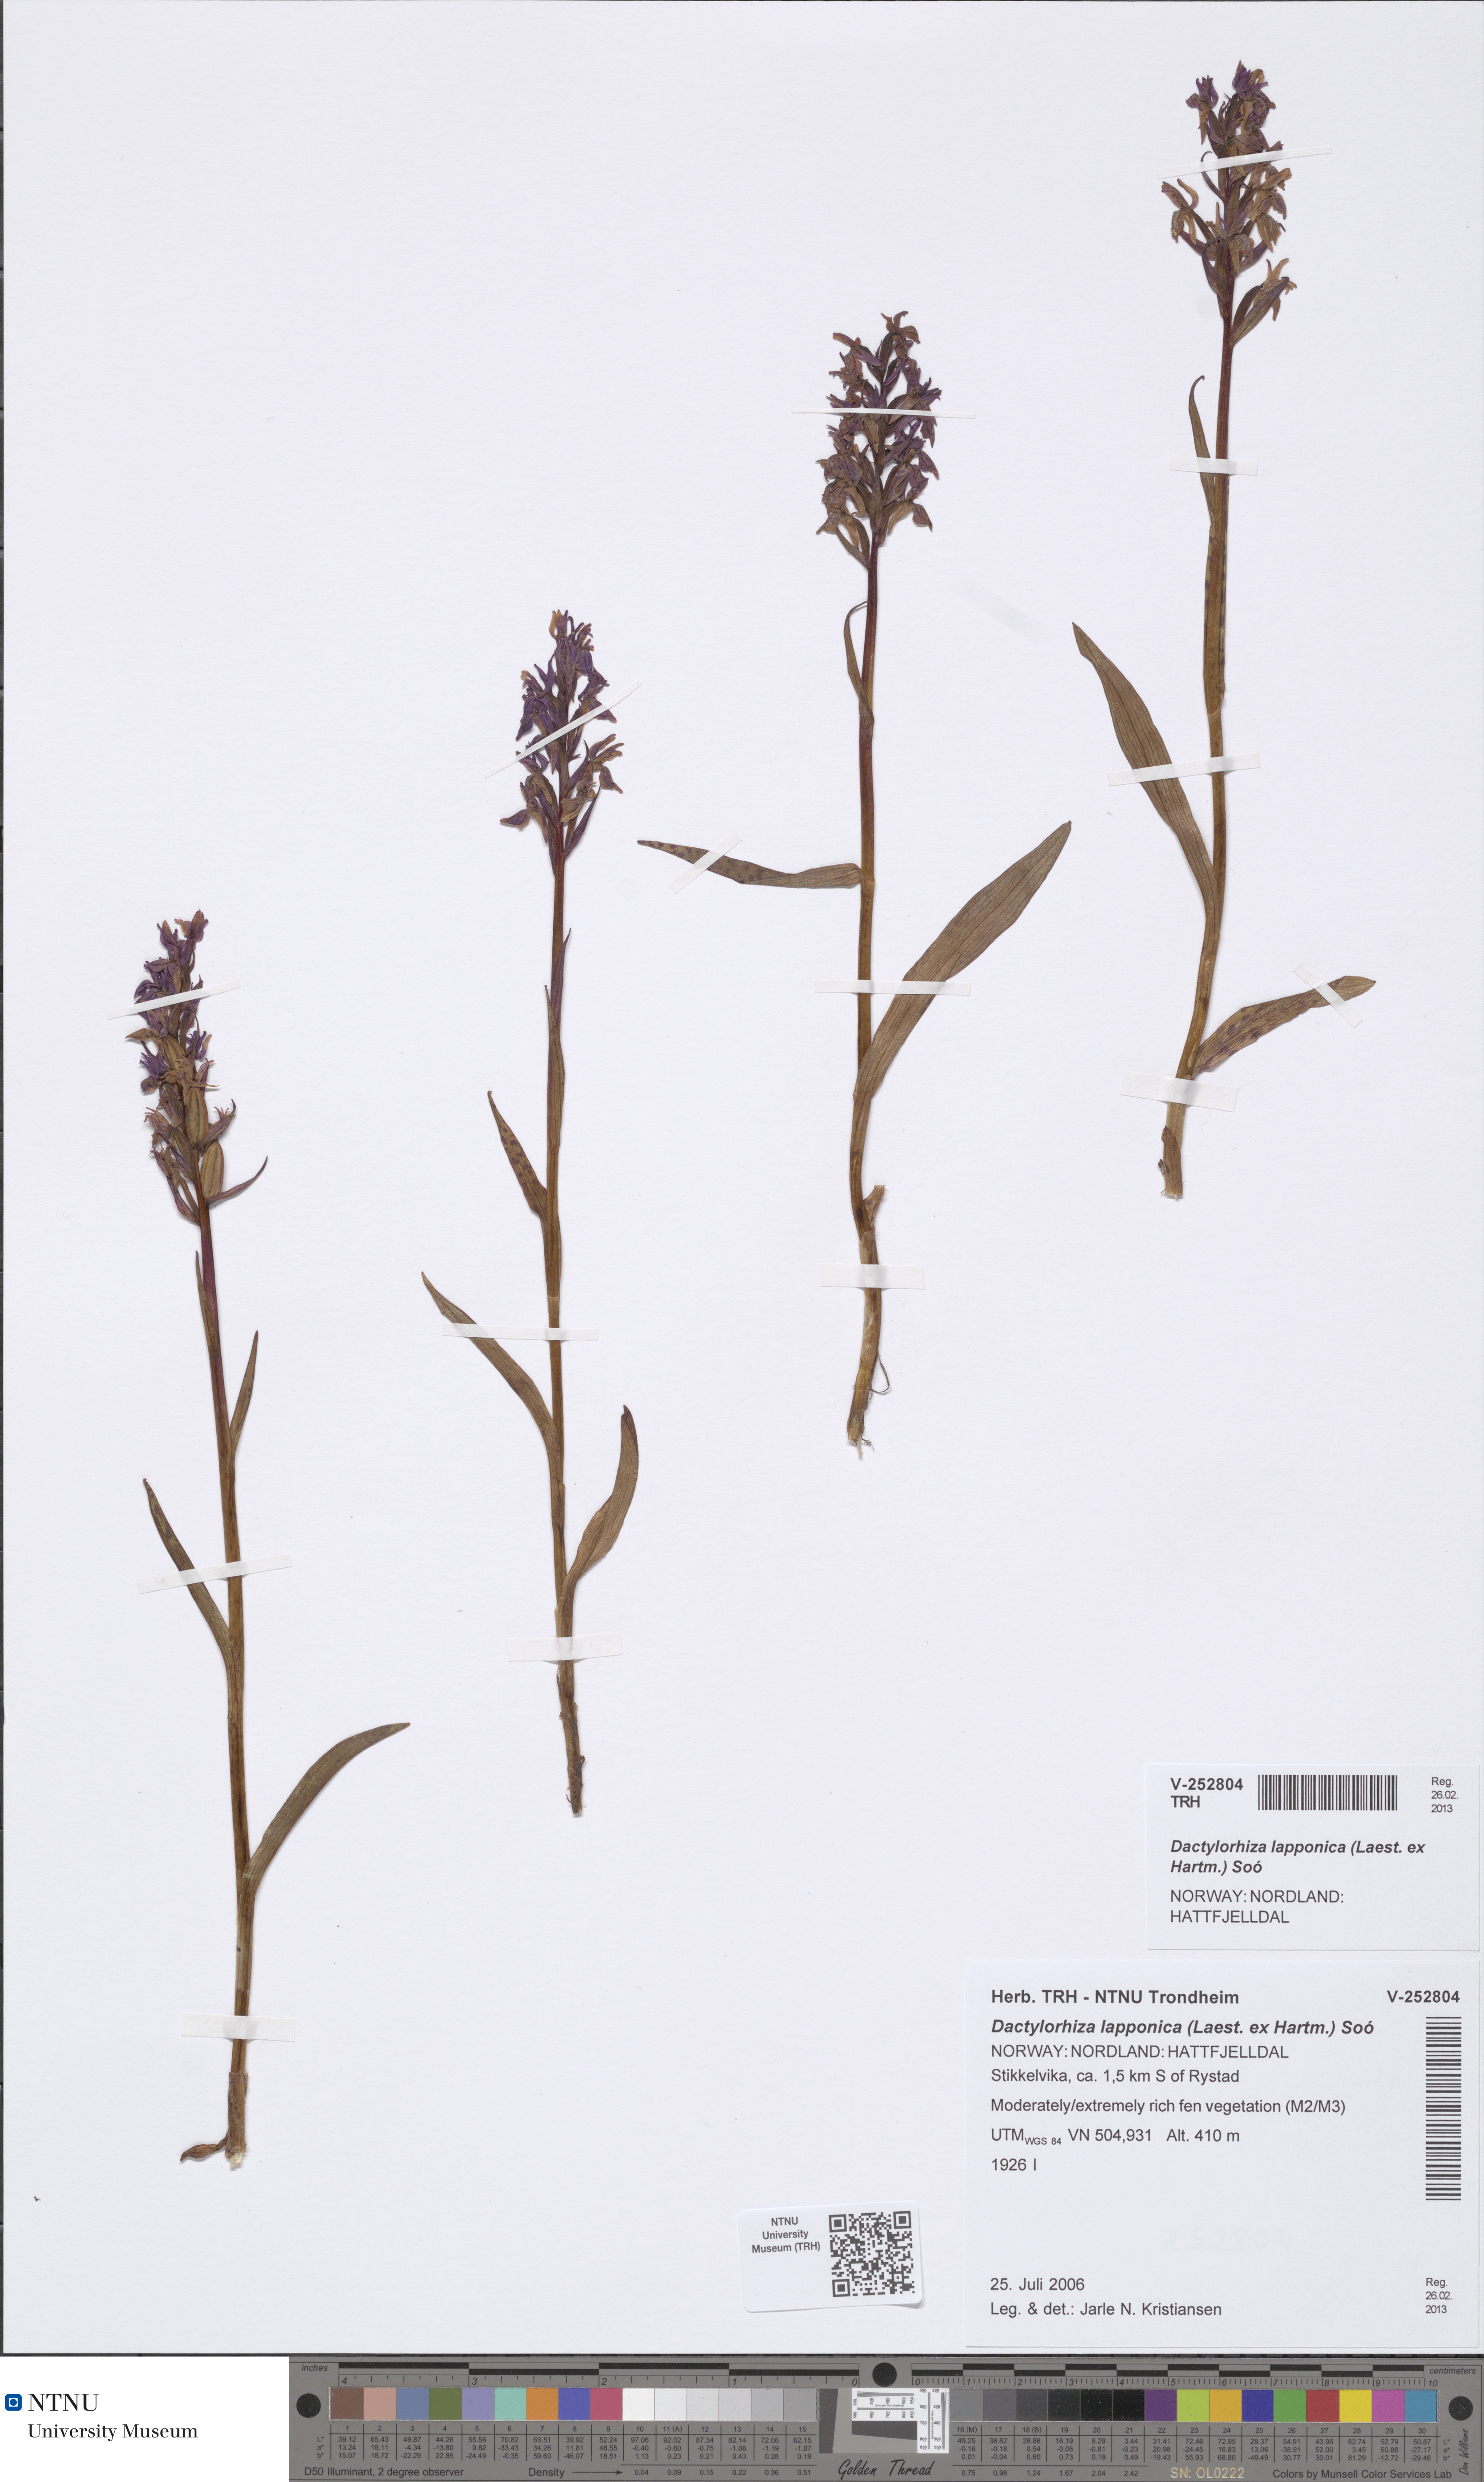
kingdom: Plantae
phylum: Tracheophyta
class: Liliopsida
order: Asparagales
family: Orchidaceae
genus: Dactylorhiza
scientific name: Dactylorhiza majalis
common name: Marsh orchid
